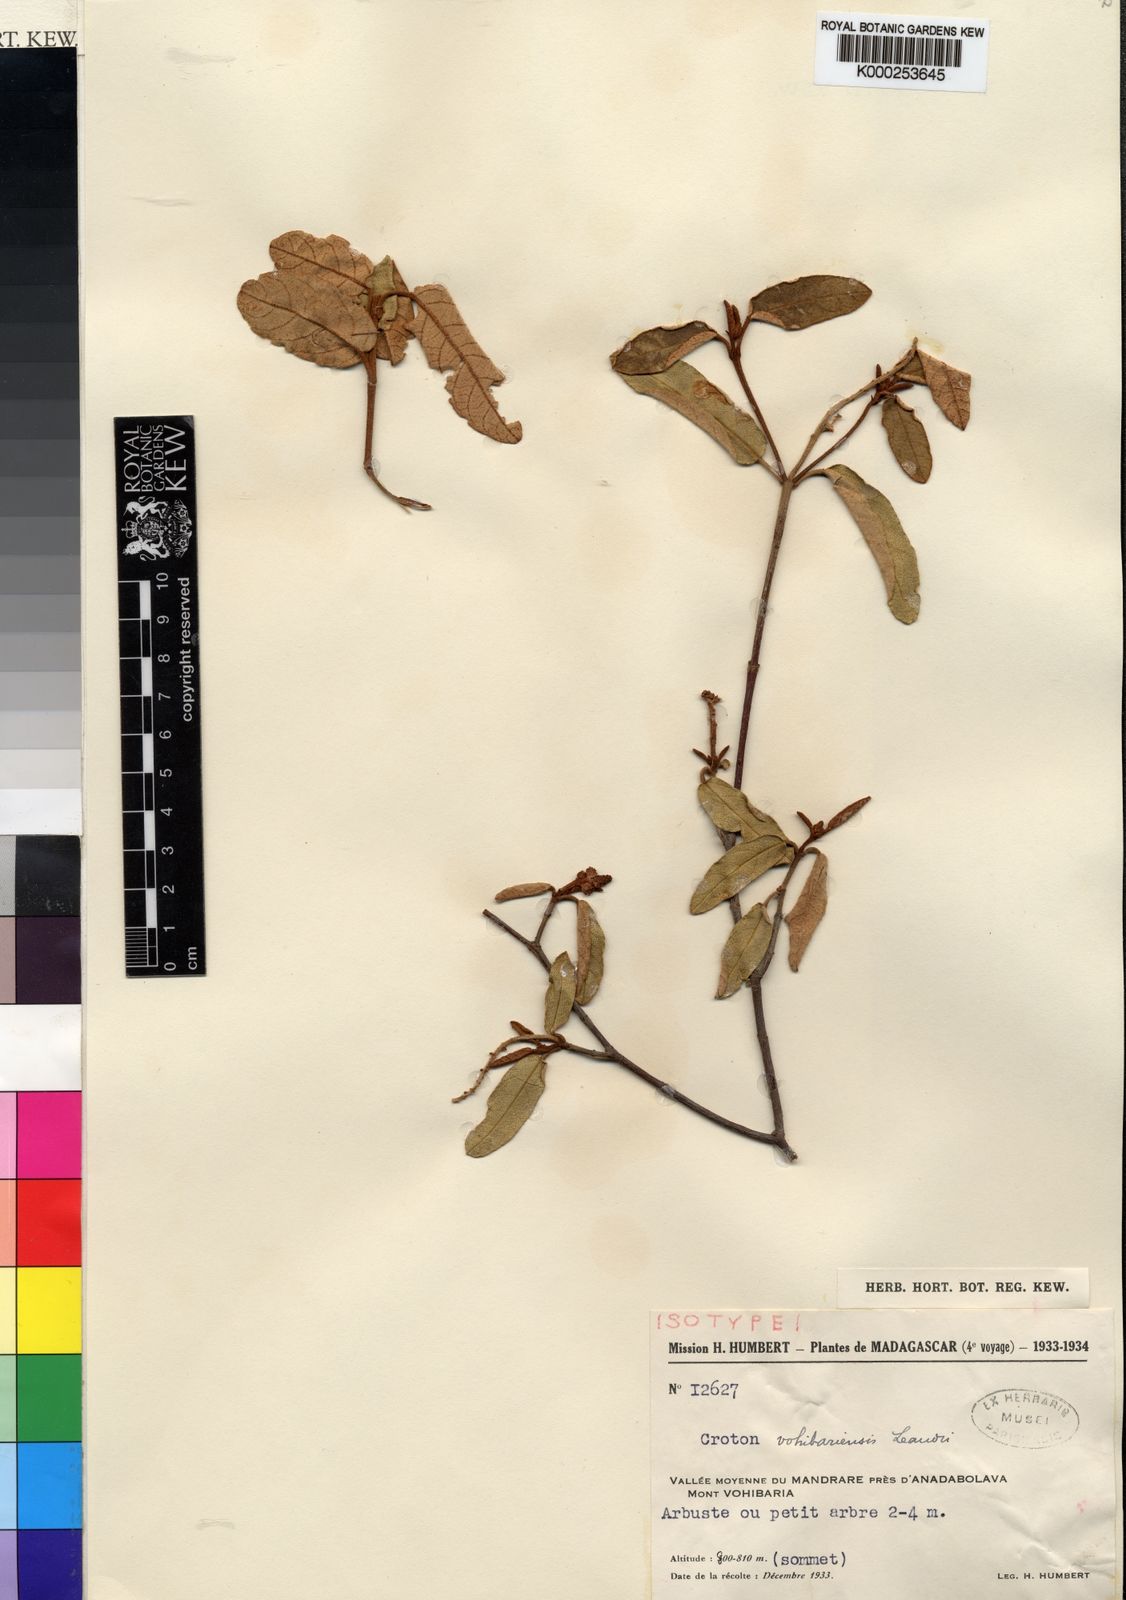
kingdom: Plantae
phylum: Tracheophyta
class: Magnoliopsida
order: Malpighiales
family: Euphorbiaceae
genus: Croton
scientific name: Croton farinosus
